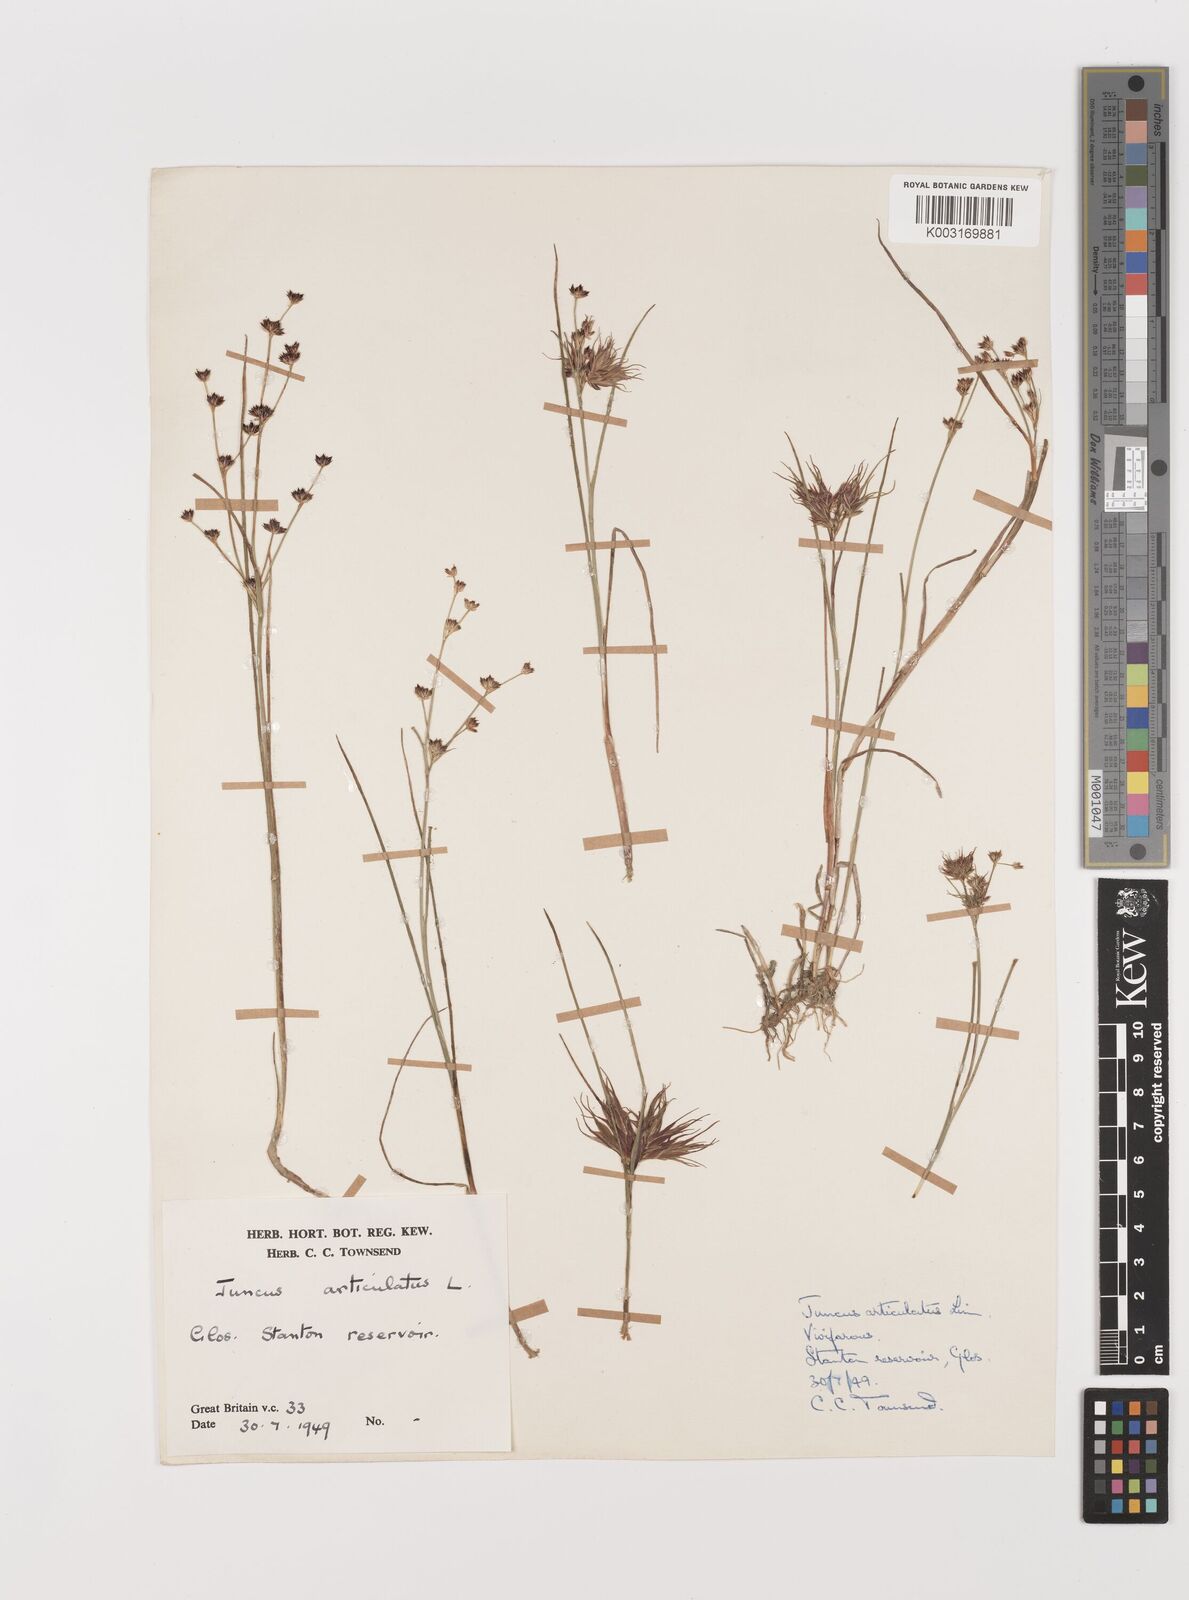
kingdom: Plantae
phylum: Tracheophyta
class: Liliopsida
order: Poales
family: Juncaceae
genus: Juncus
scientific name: Juncus articulatus
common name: Jointed rush
